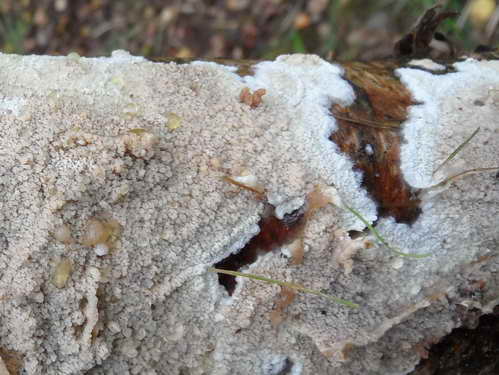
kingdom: Fungi
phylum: Basidiomycota
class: Agaricomycetes
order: Polyporales
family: Irpicaceae
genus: Crystallicutis
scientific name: Crystallicutis serpens
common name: gråviolet barkhinde
